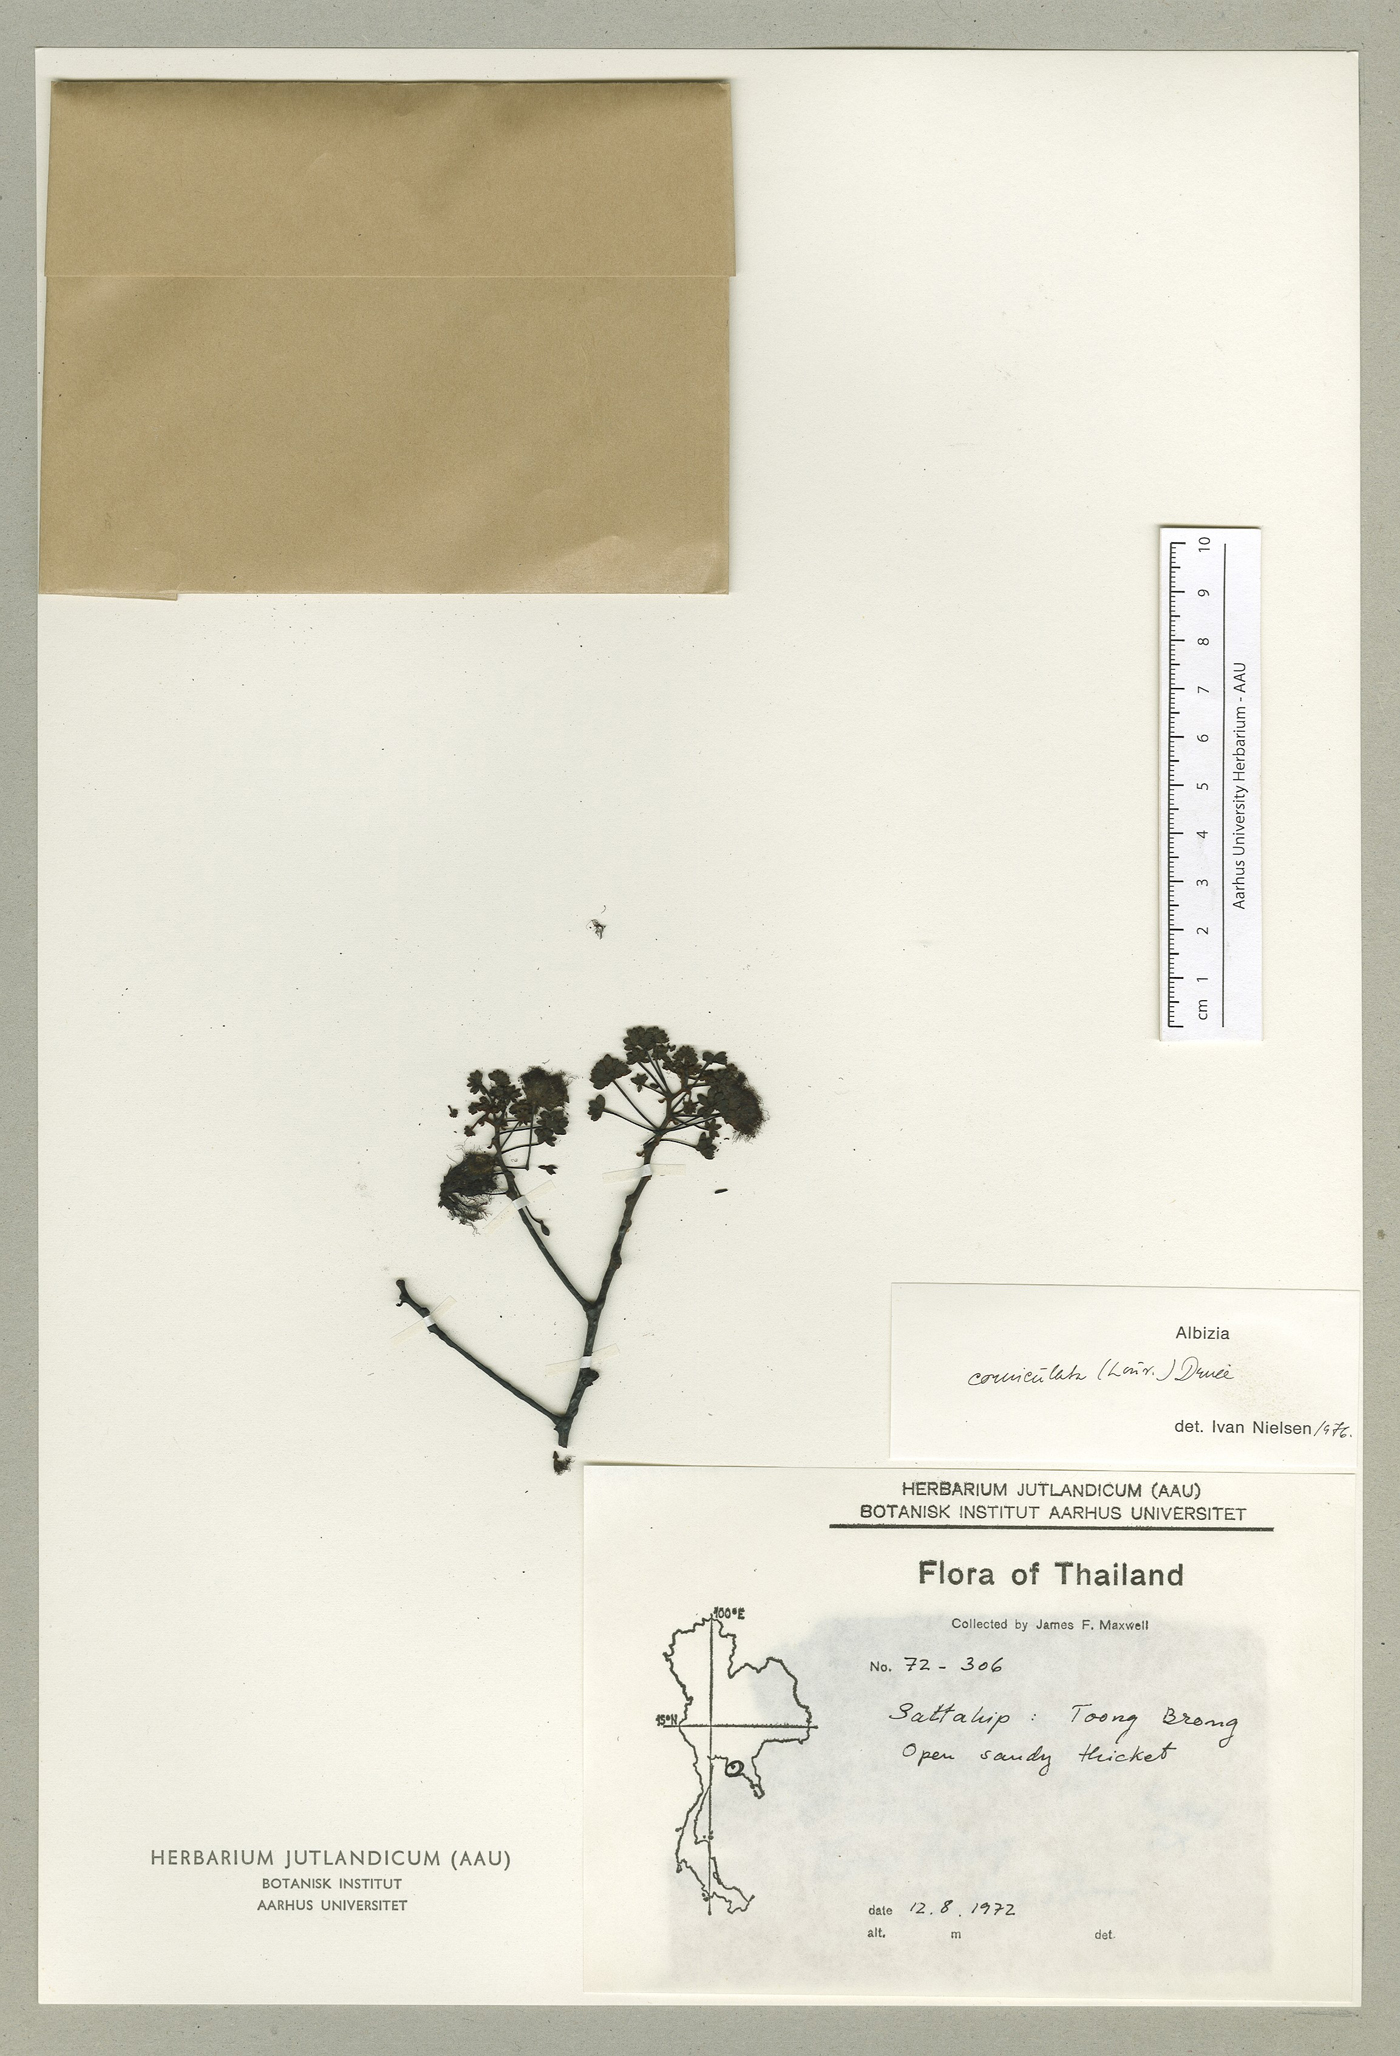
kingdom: Plantae
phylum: Tracheophyta
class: Magnoliopsida
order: Fabales
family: Fabaceae
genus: Albizia
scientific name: Albizia corniculata
